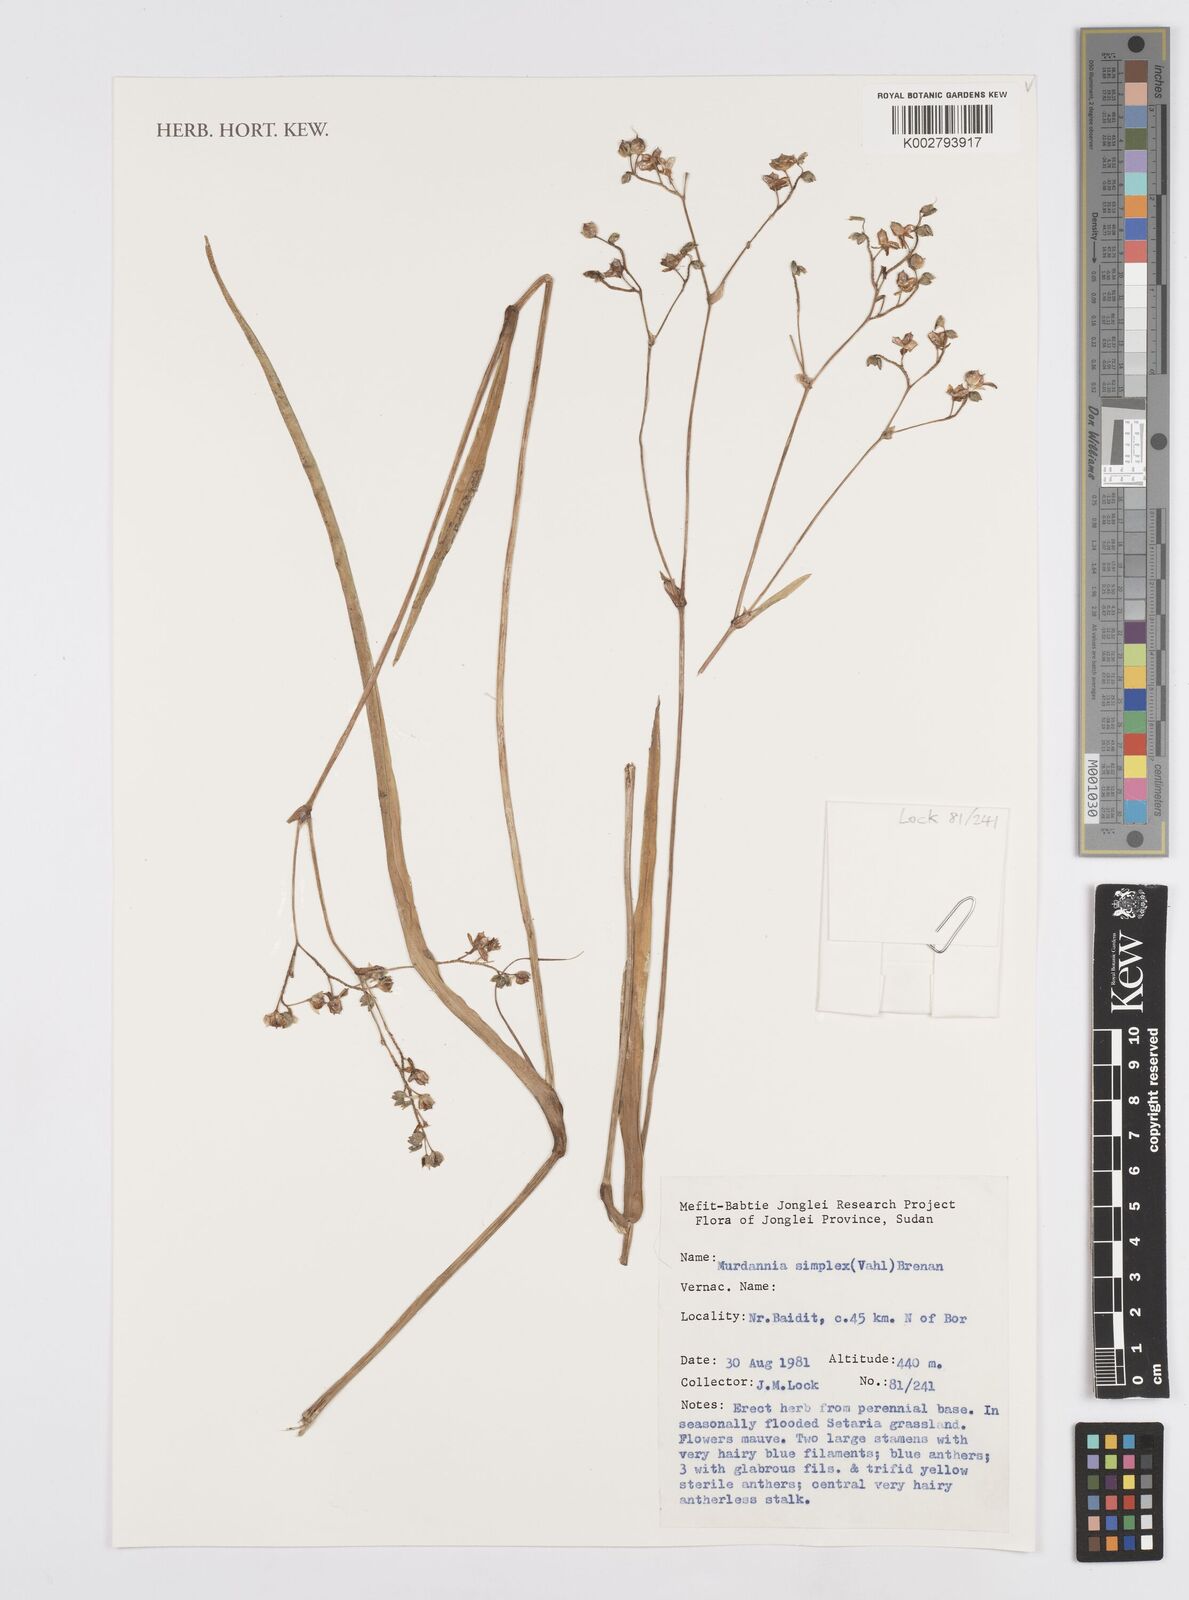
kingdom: Plantae
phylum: Tracheophyta
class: Liliopsida
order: Commelinales
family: Commelinaceae
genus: Murdannia
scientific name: Murdannia simplex
